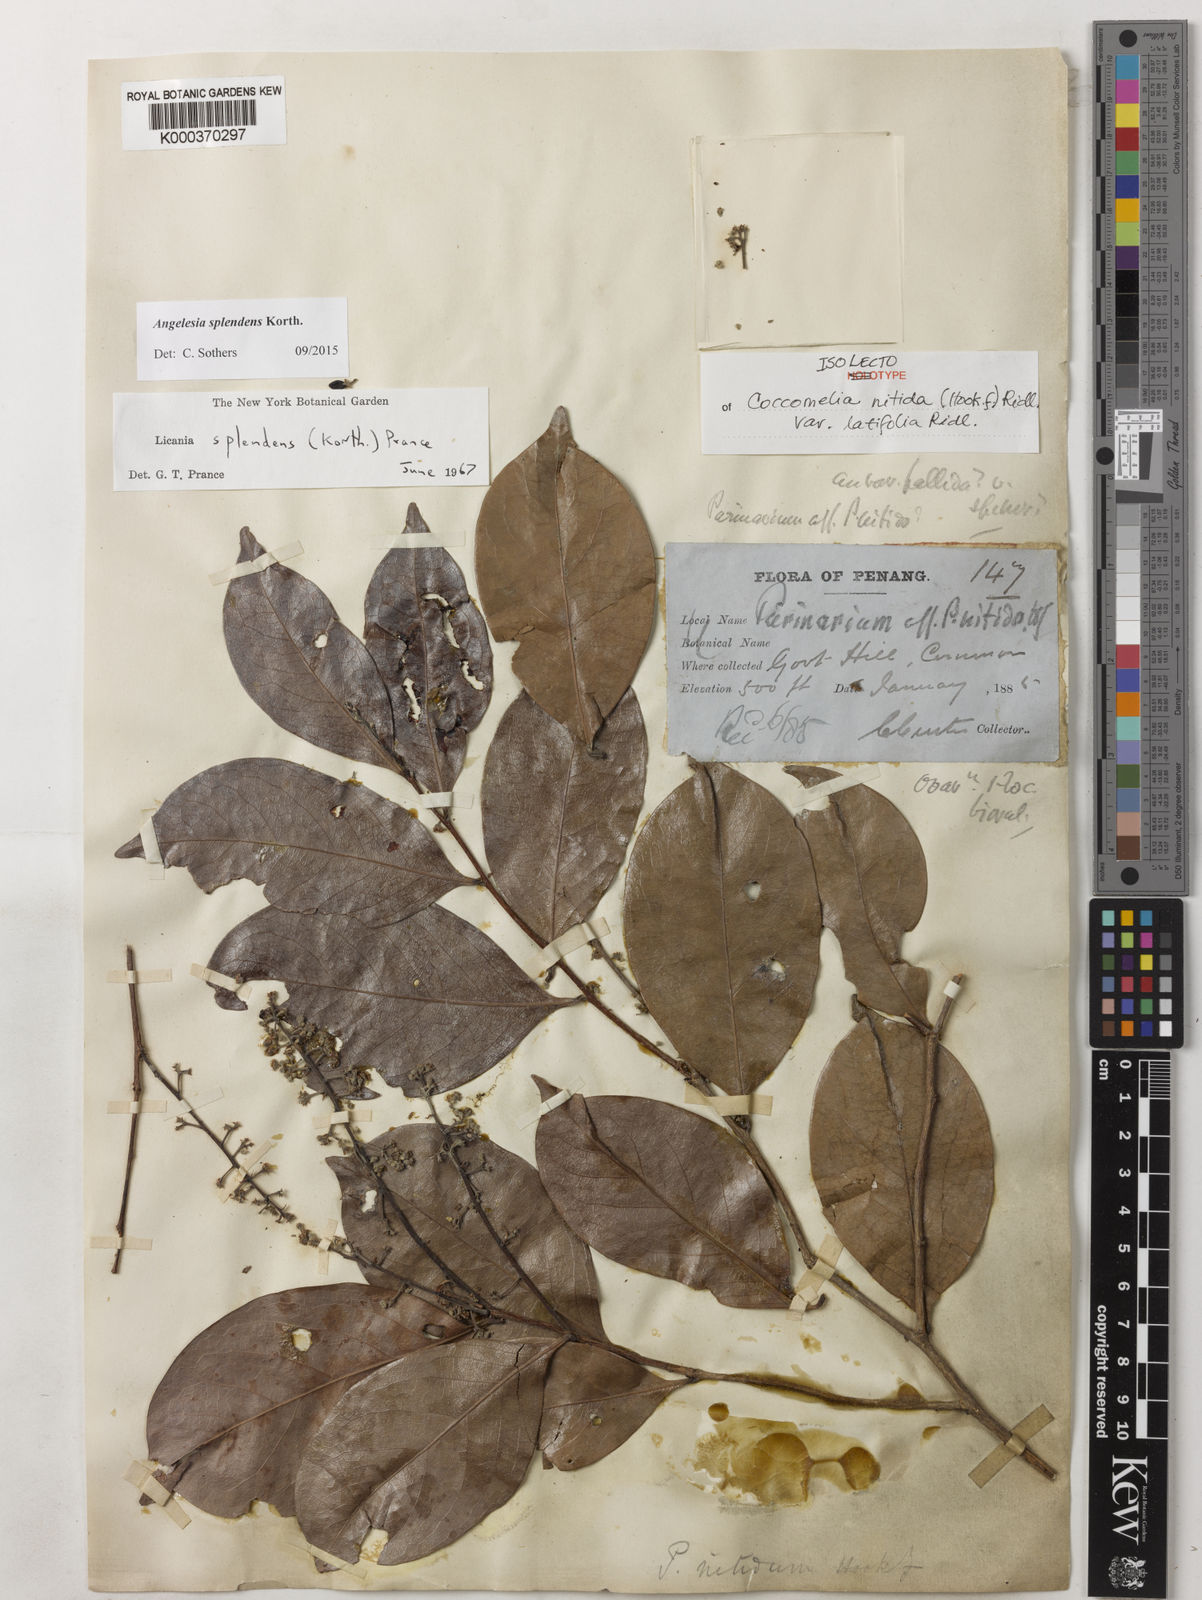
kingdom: Plantae
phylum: Tracheophyta
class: Magnoliopsida
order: Malpighiales
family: Chrysobalanaceae
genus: Angelesia
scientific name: Angelesia splendens
